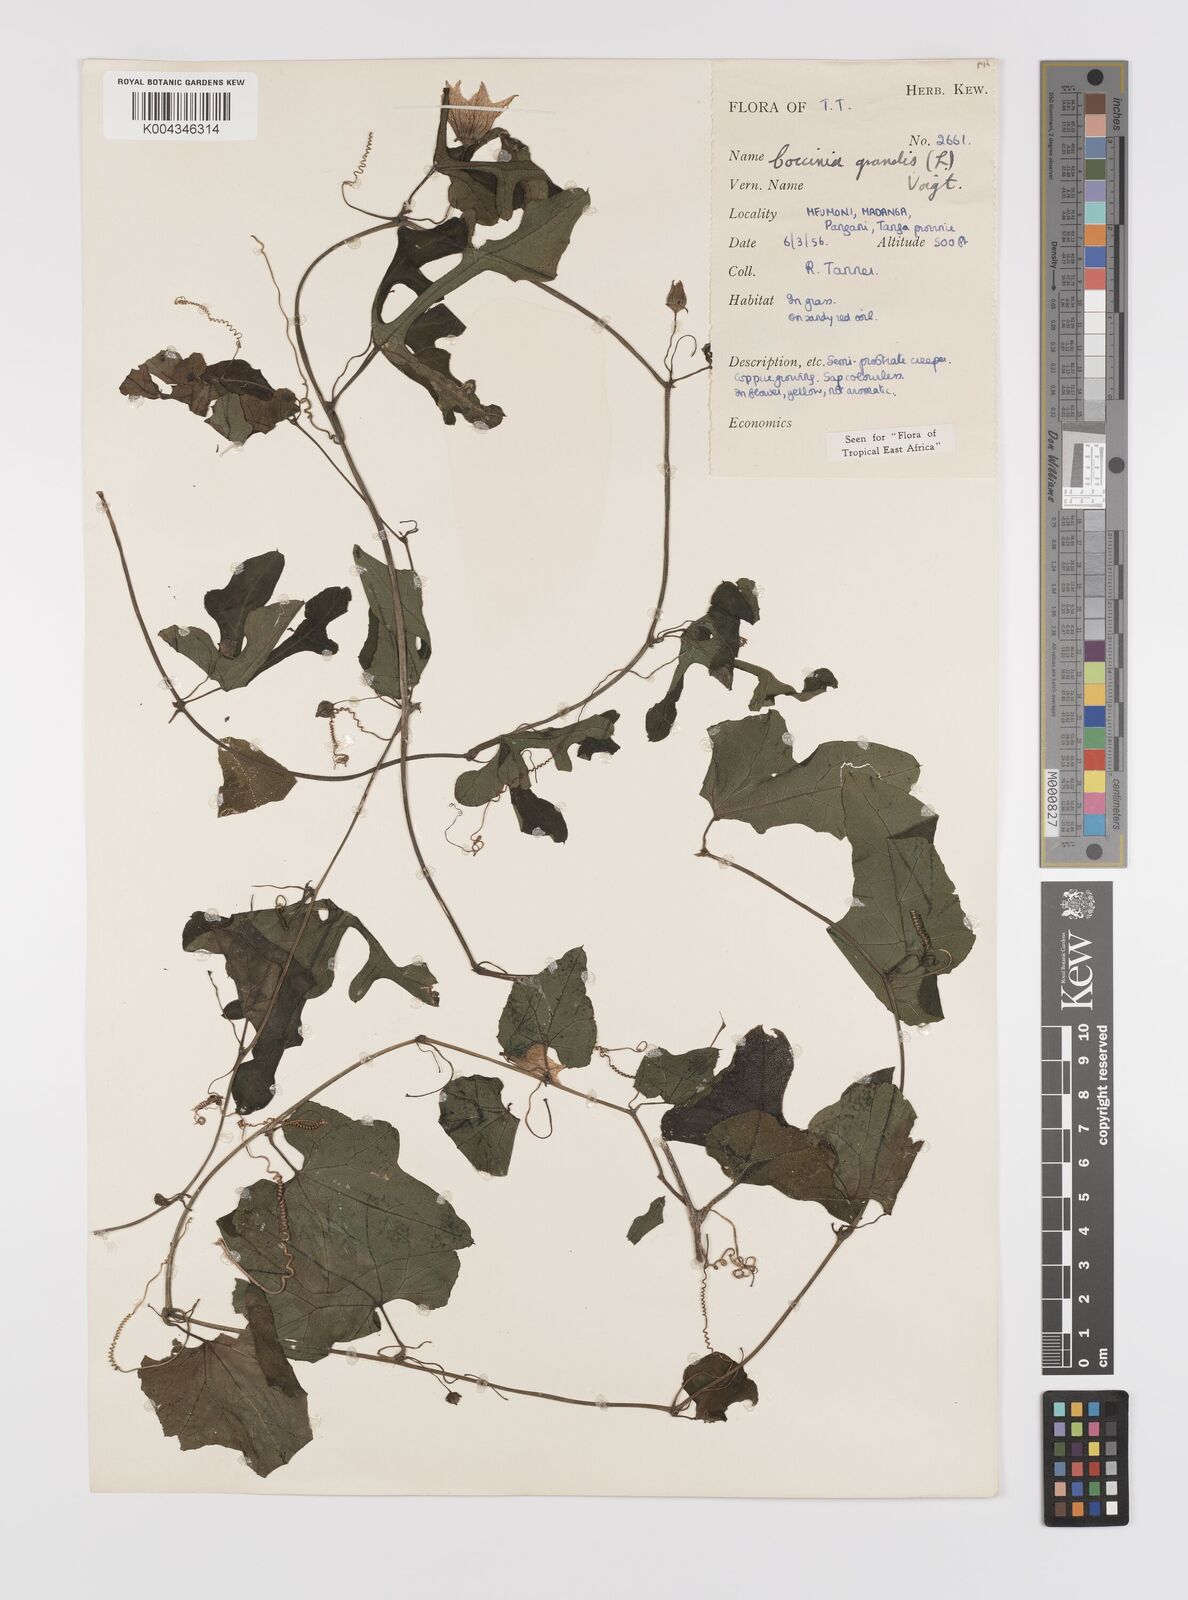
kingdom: Plantae
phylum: Tracheophyta
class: Magnoliopsida
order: Cucurbitales
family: Cucurbitaceae
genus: Coccinia
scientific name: Coccinia grandis
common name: Ivy gourd
